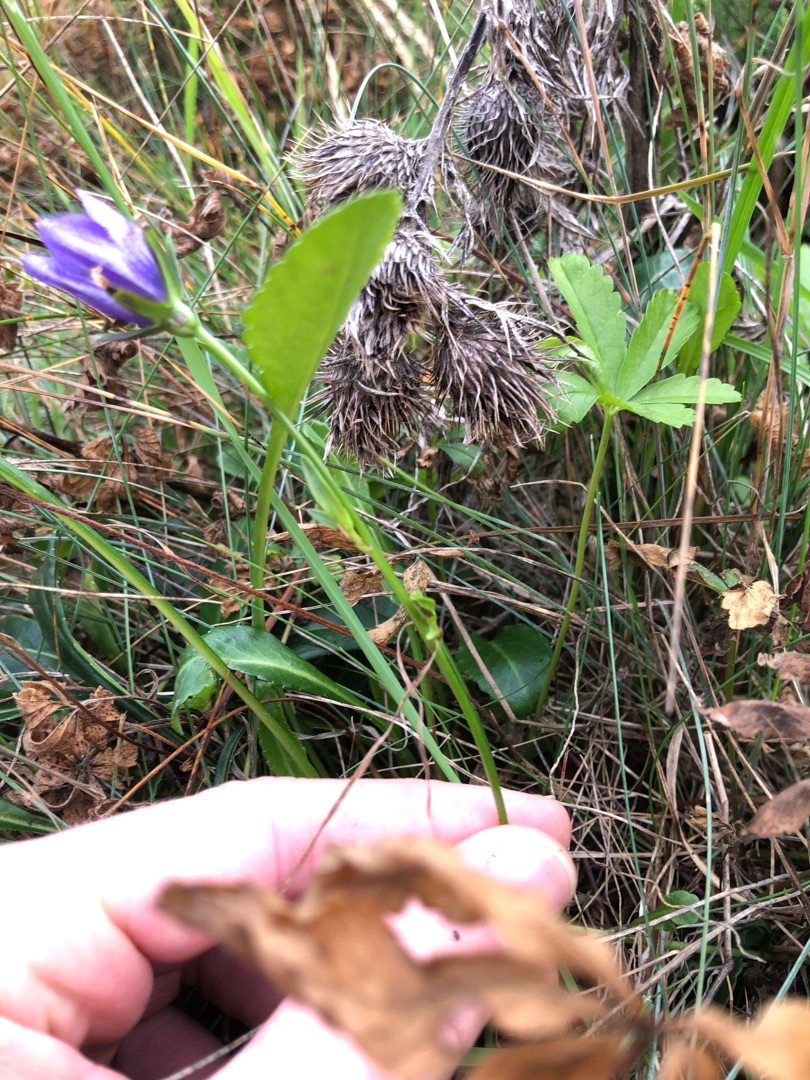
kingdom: Plantae
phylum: Tracheophyta
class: Magnoliopsida
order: Asterales
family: Campanulaceae
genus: Campanula
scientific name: Campanula persicifolia
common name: Smalbladet klokke
